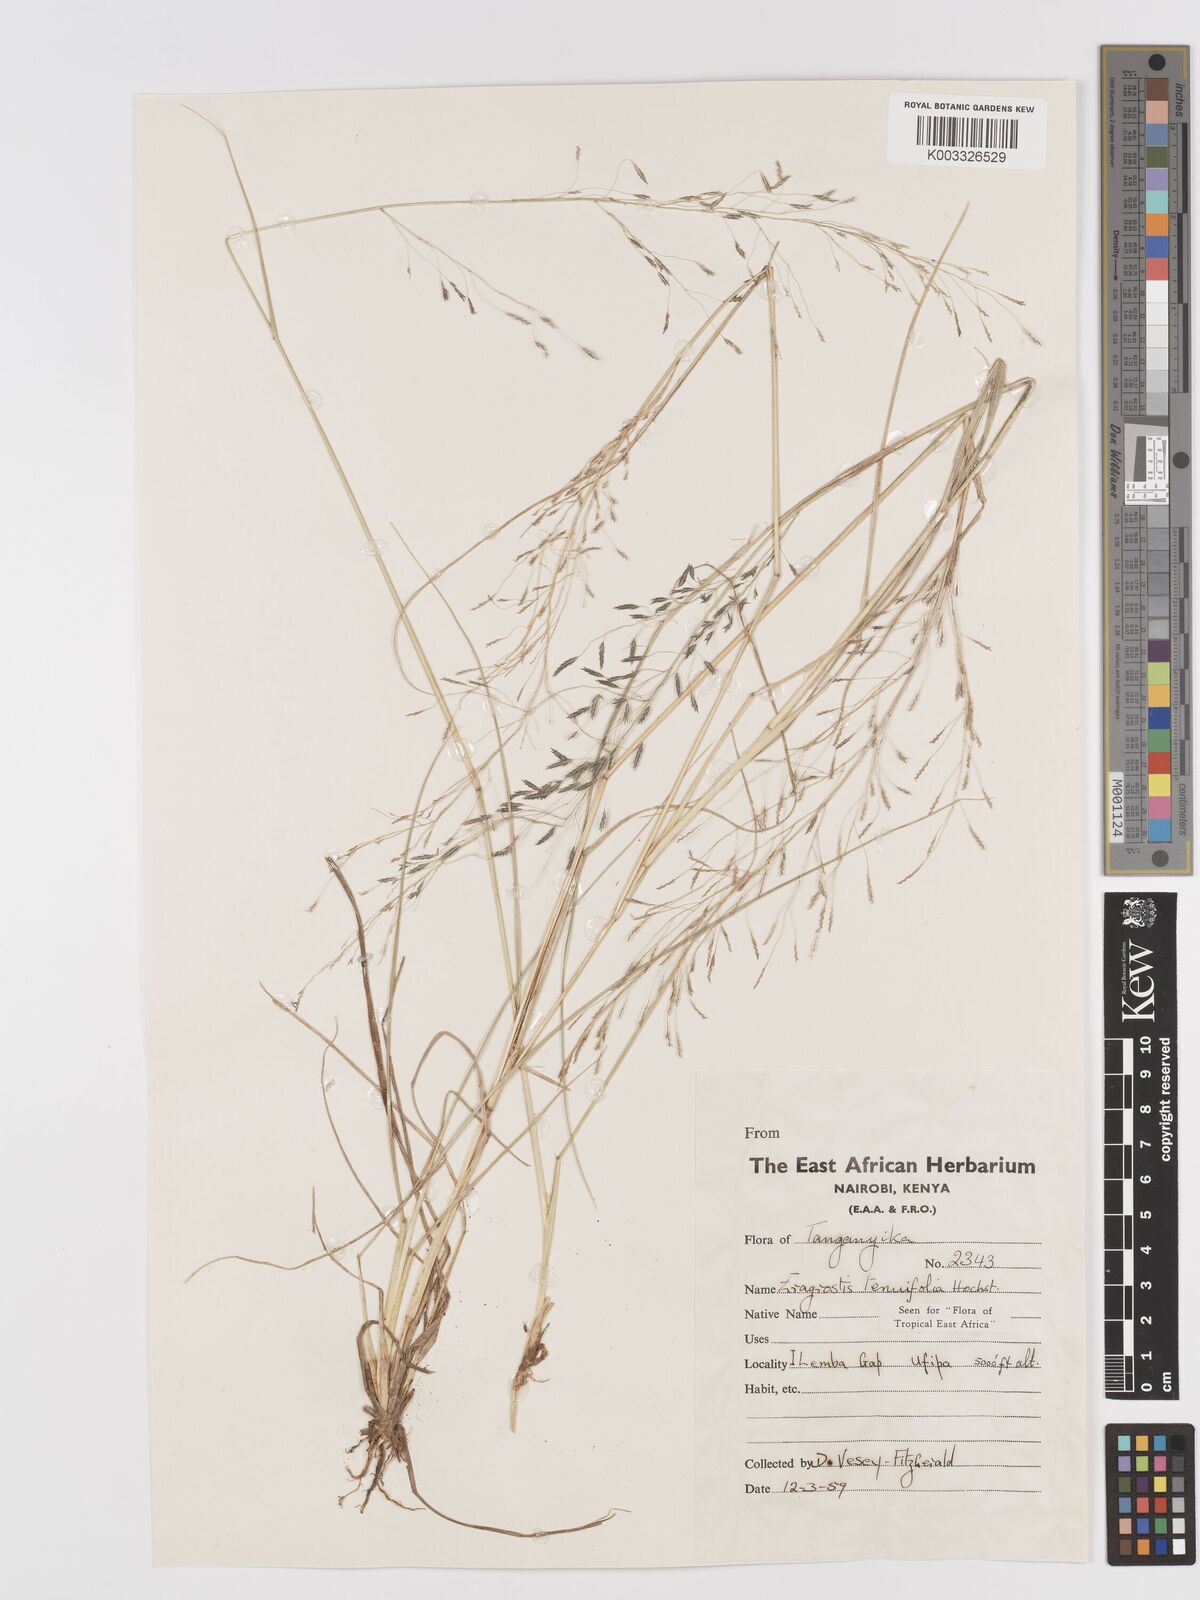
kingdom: Plantae
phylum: Tracheophyta
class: Liliopsida
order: Poales
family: Poaceae
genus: Eragrostis
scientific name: Eragrostis tenuifolia
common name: Elastic grass
